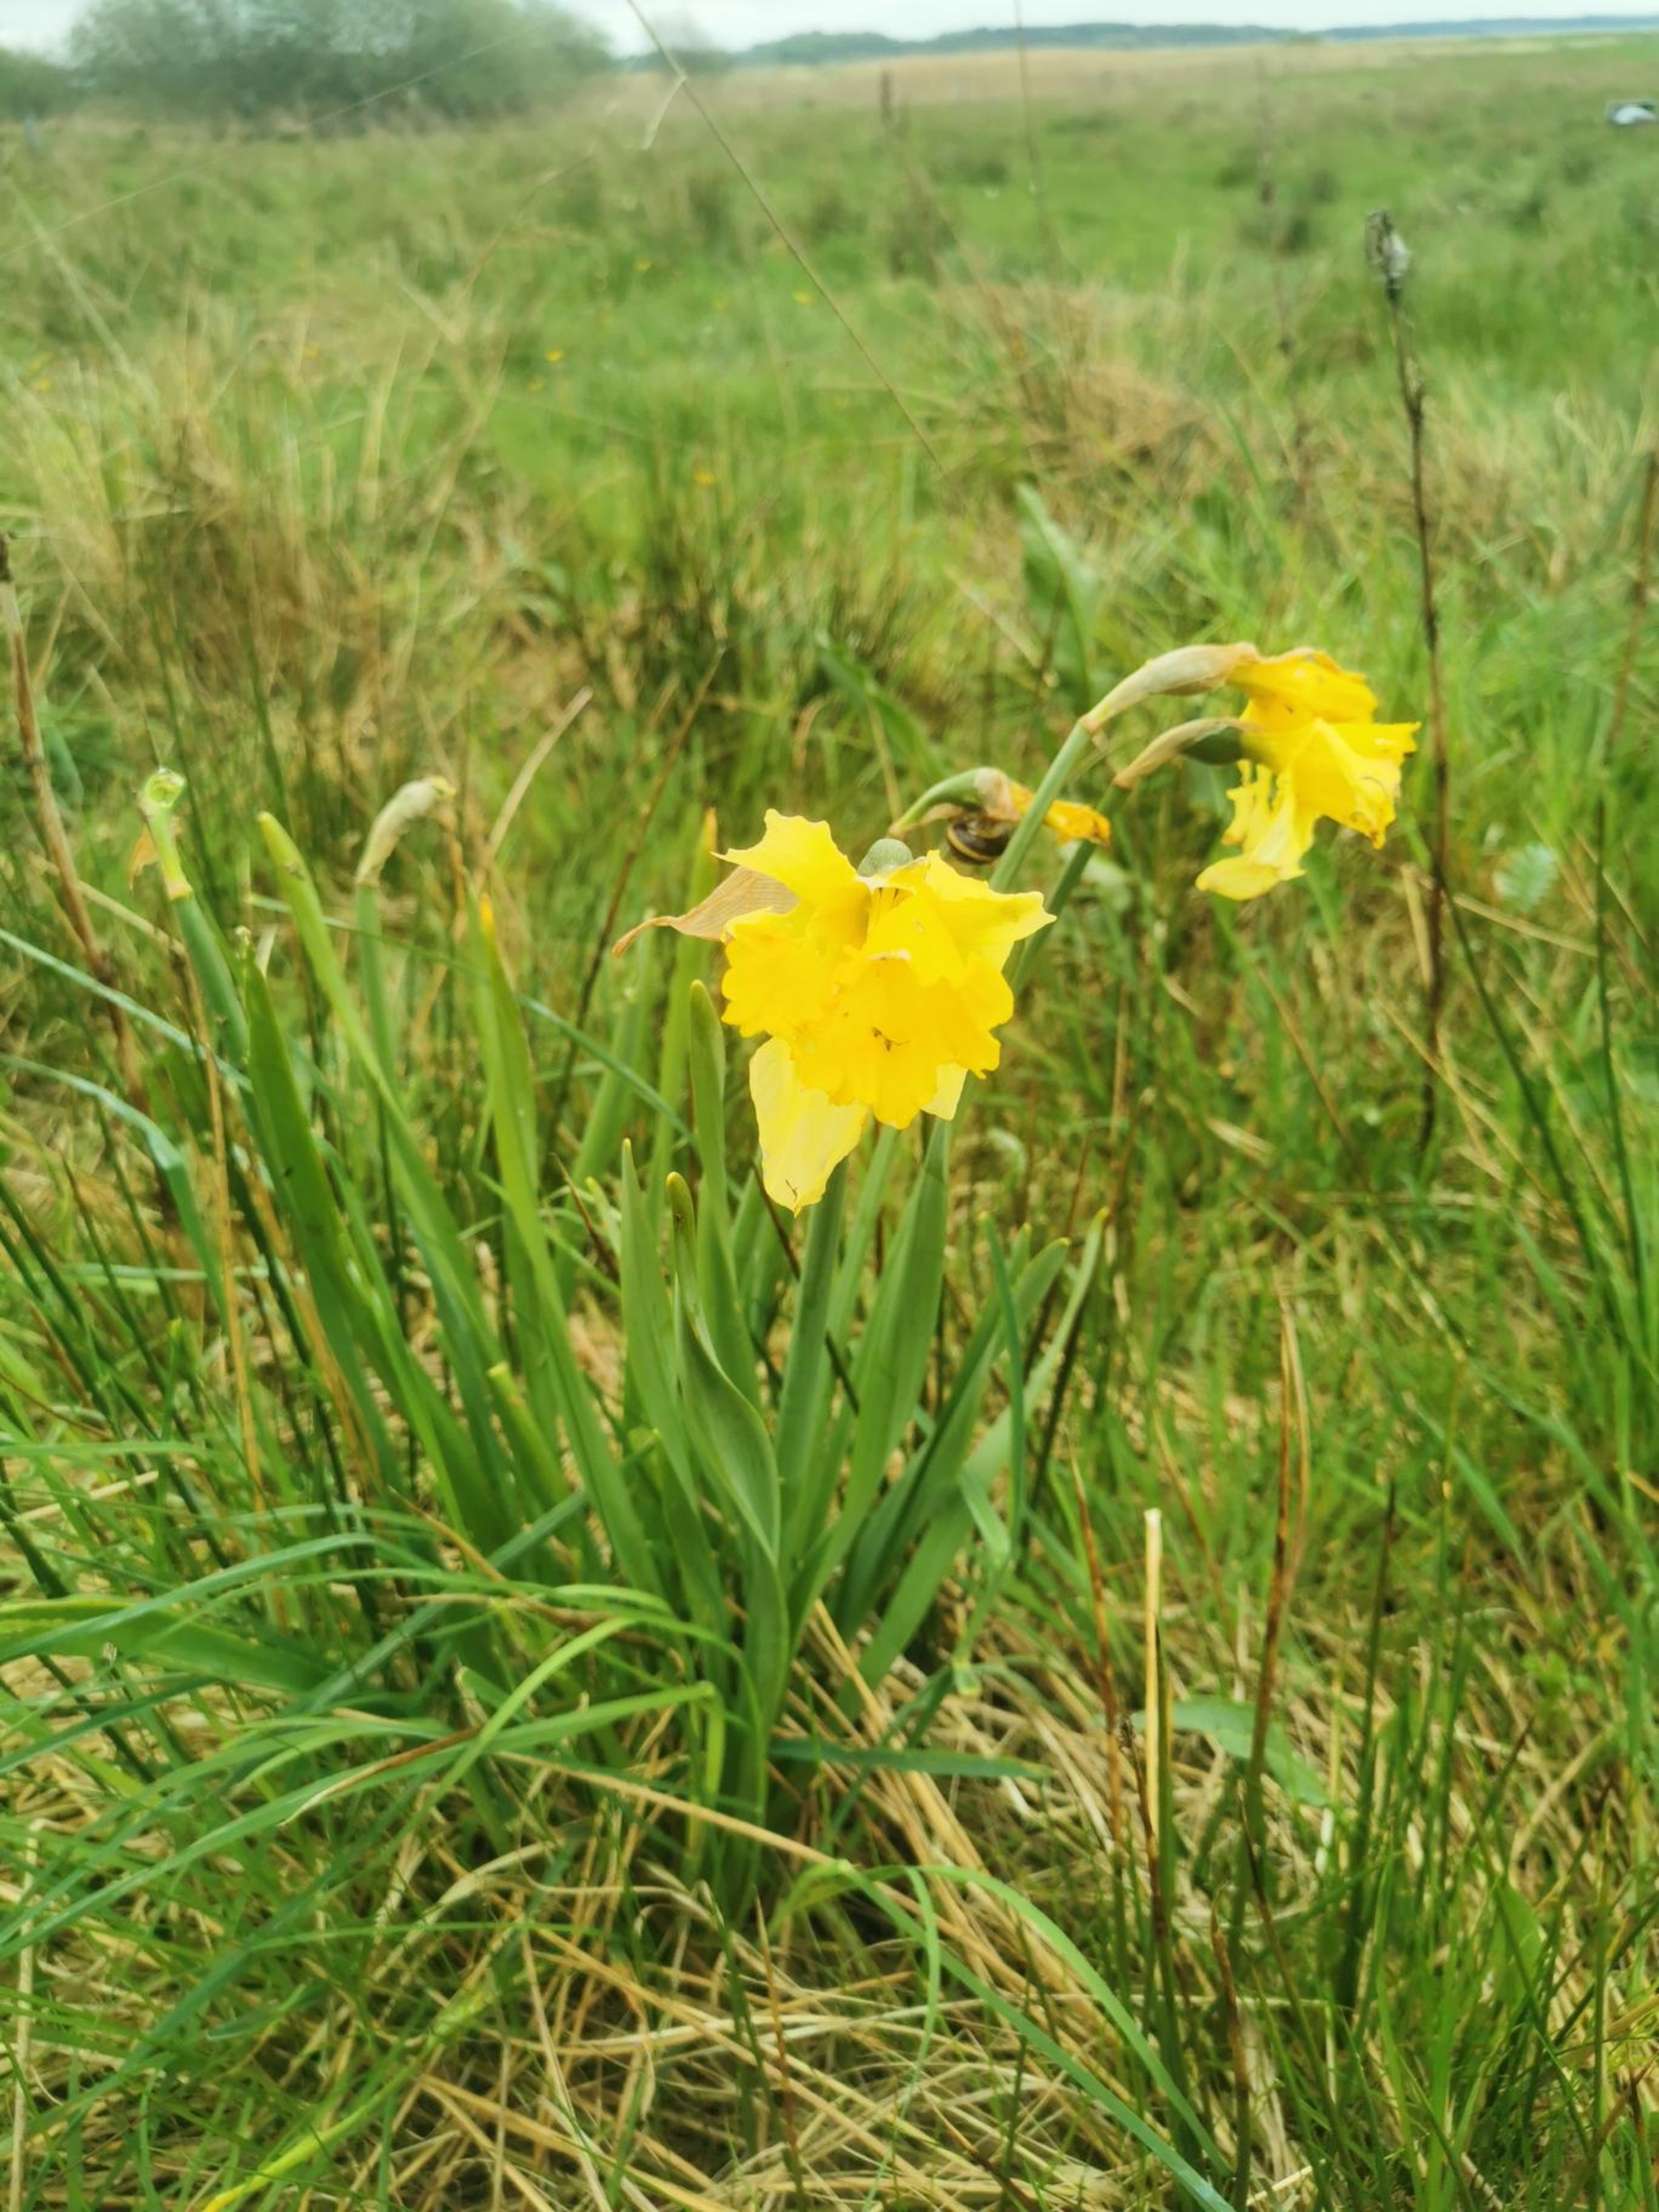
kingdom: Plantae
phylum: Tracheophyta
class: Liliopsida
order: Asparagales
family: Amaryllidaceae
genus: Narcissus
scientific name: Narcissus pseudonarcissus
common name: Påskelilje
